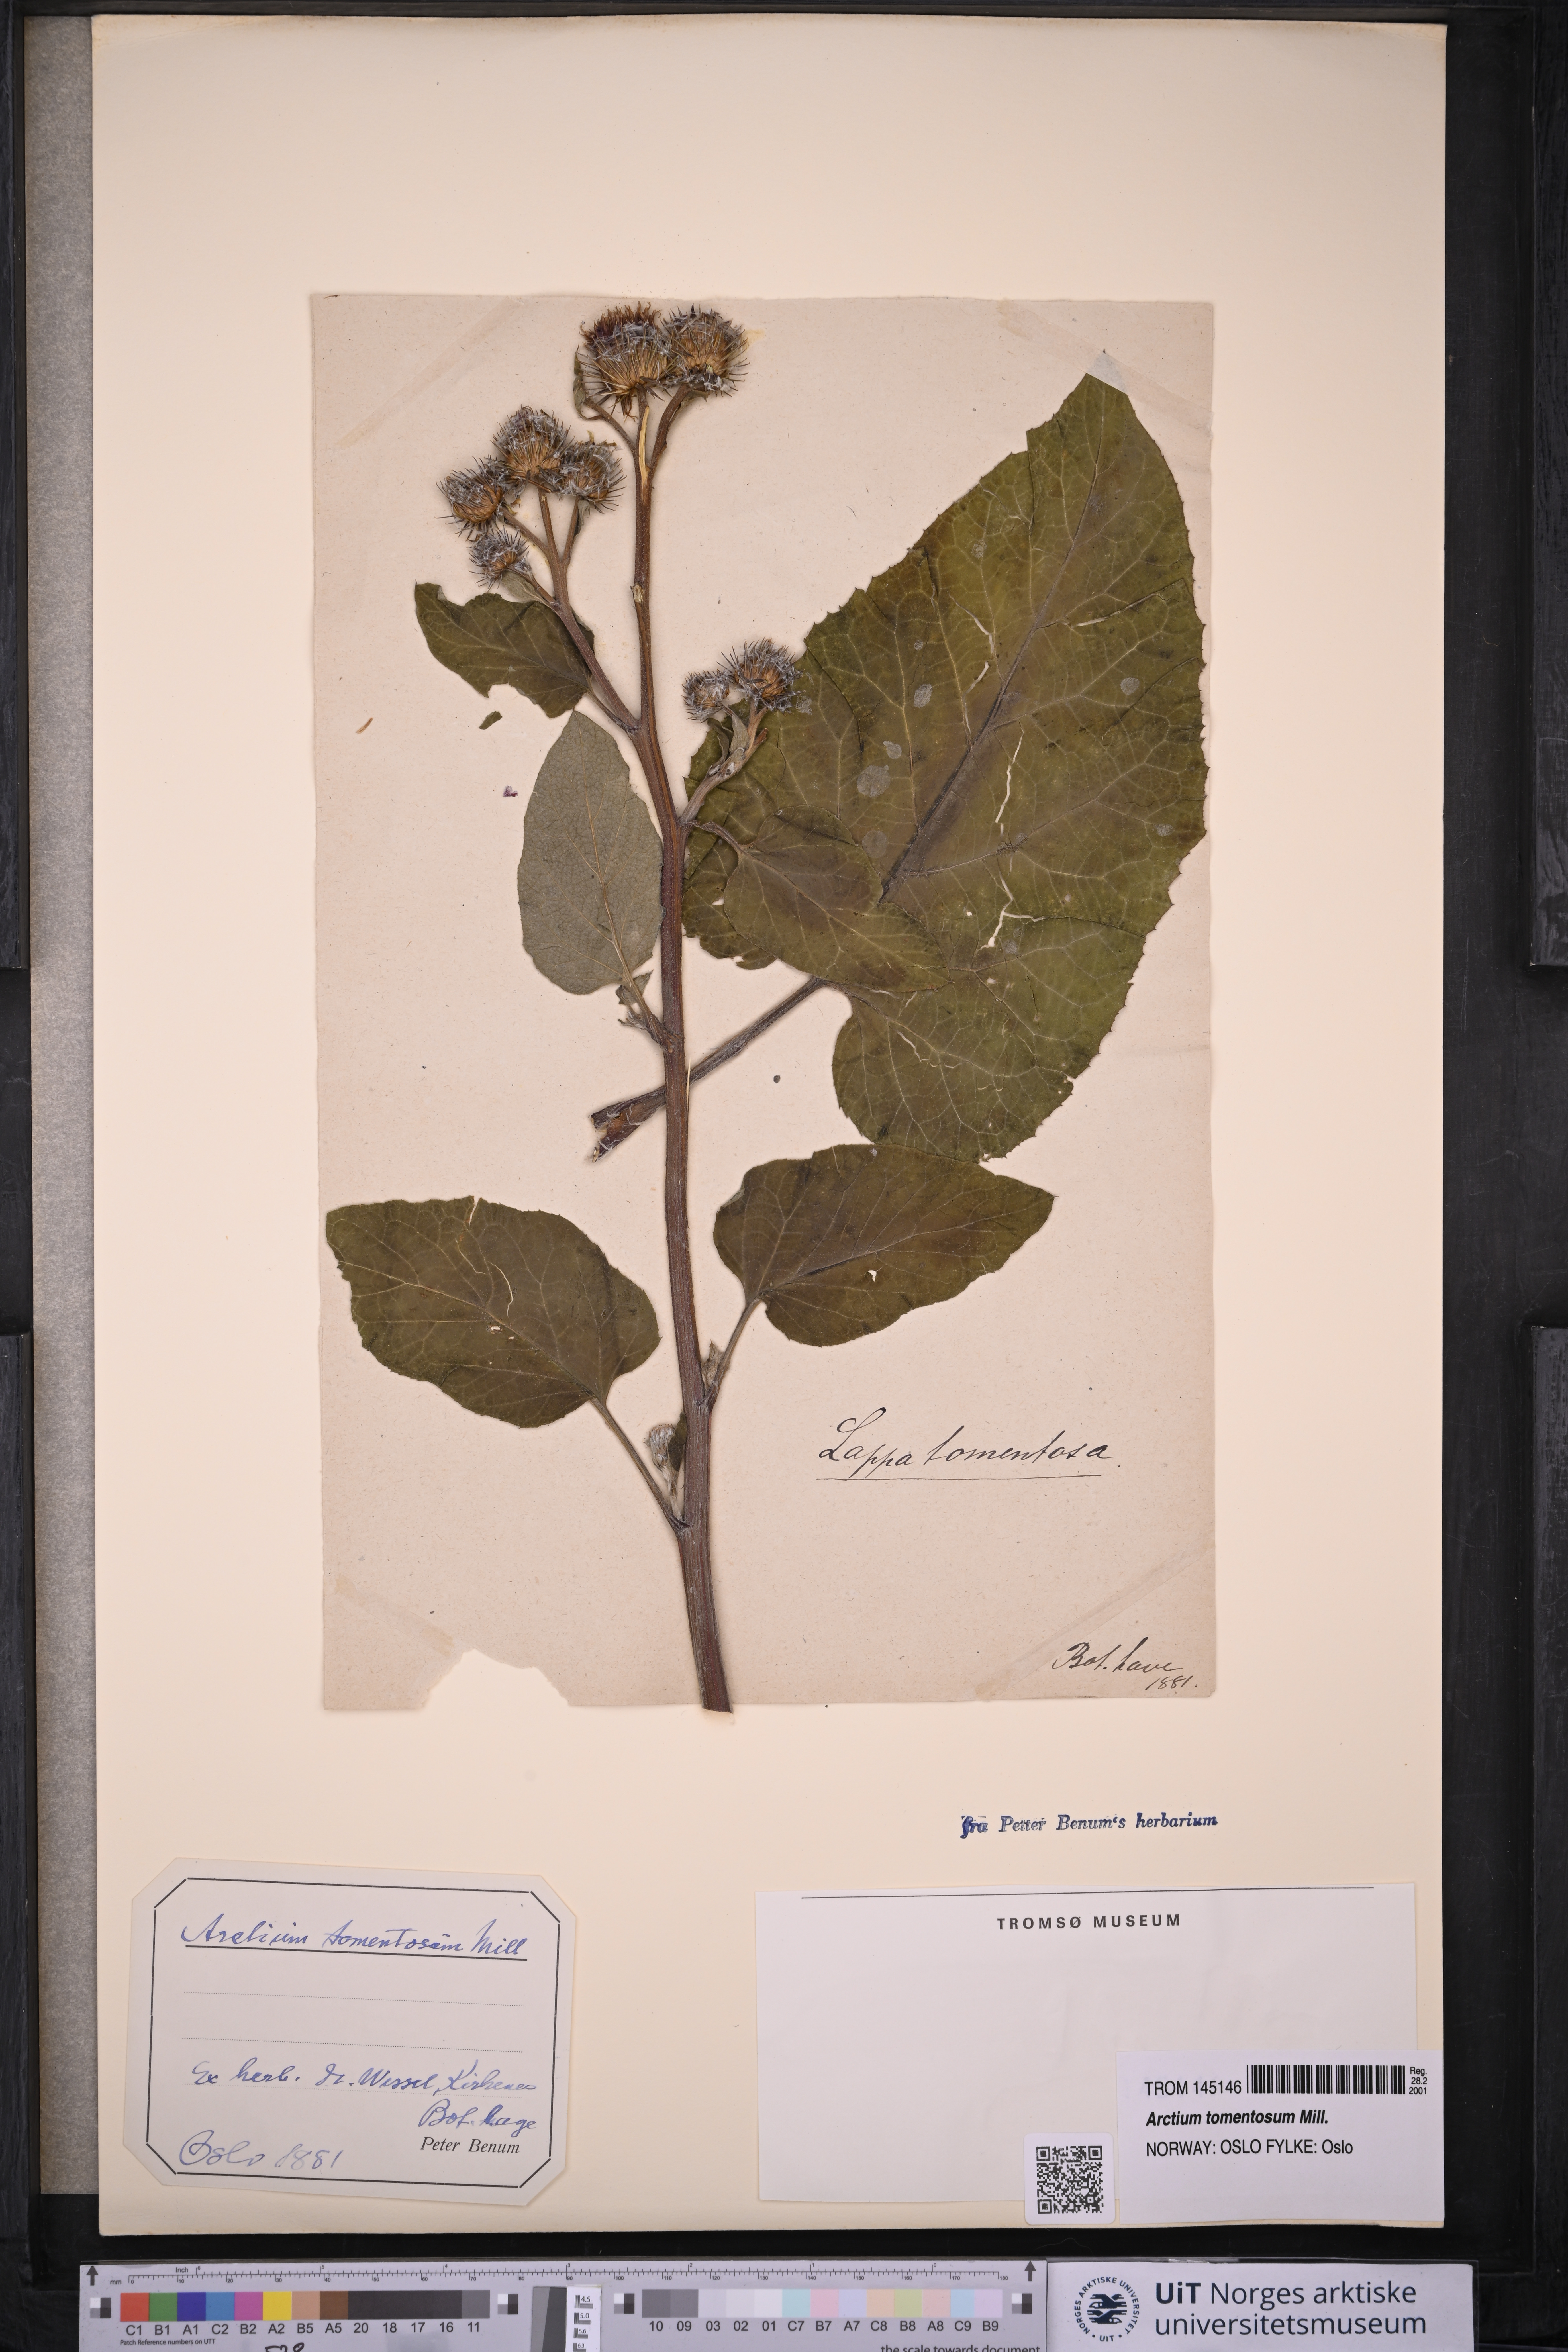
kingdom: Plantae
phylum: Tracheophyta
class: Magnoliopsida
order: Asterales
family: Asteraceae
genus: Arctium
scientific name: Arctium tomentosum
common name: Woolly burdock
